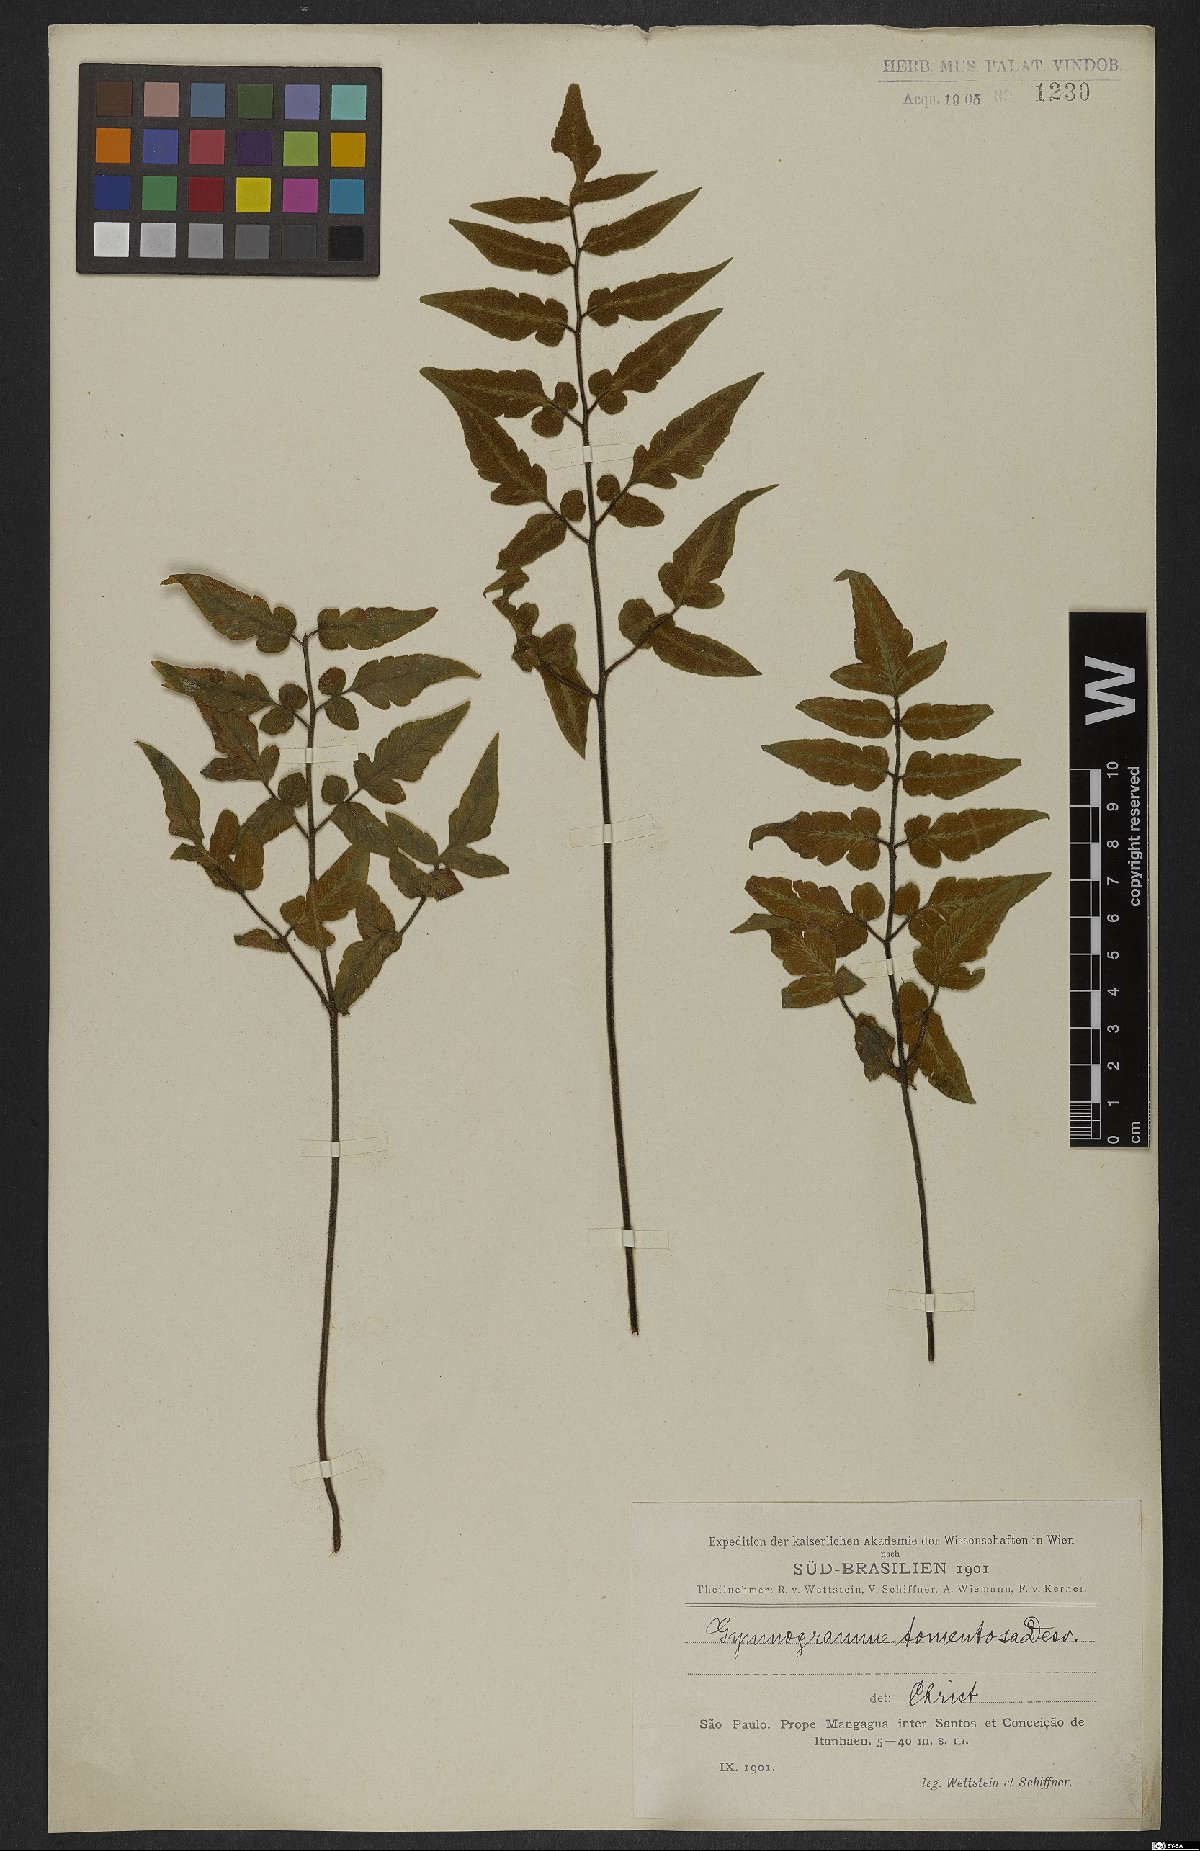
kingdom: Plantae
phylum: Tracheophyta
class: Polypodiopsida
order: Polypodiales
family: Pteridaceae
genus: Hemionitis
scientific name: Hemionitis tomentosa
